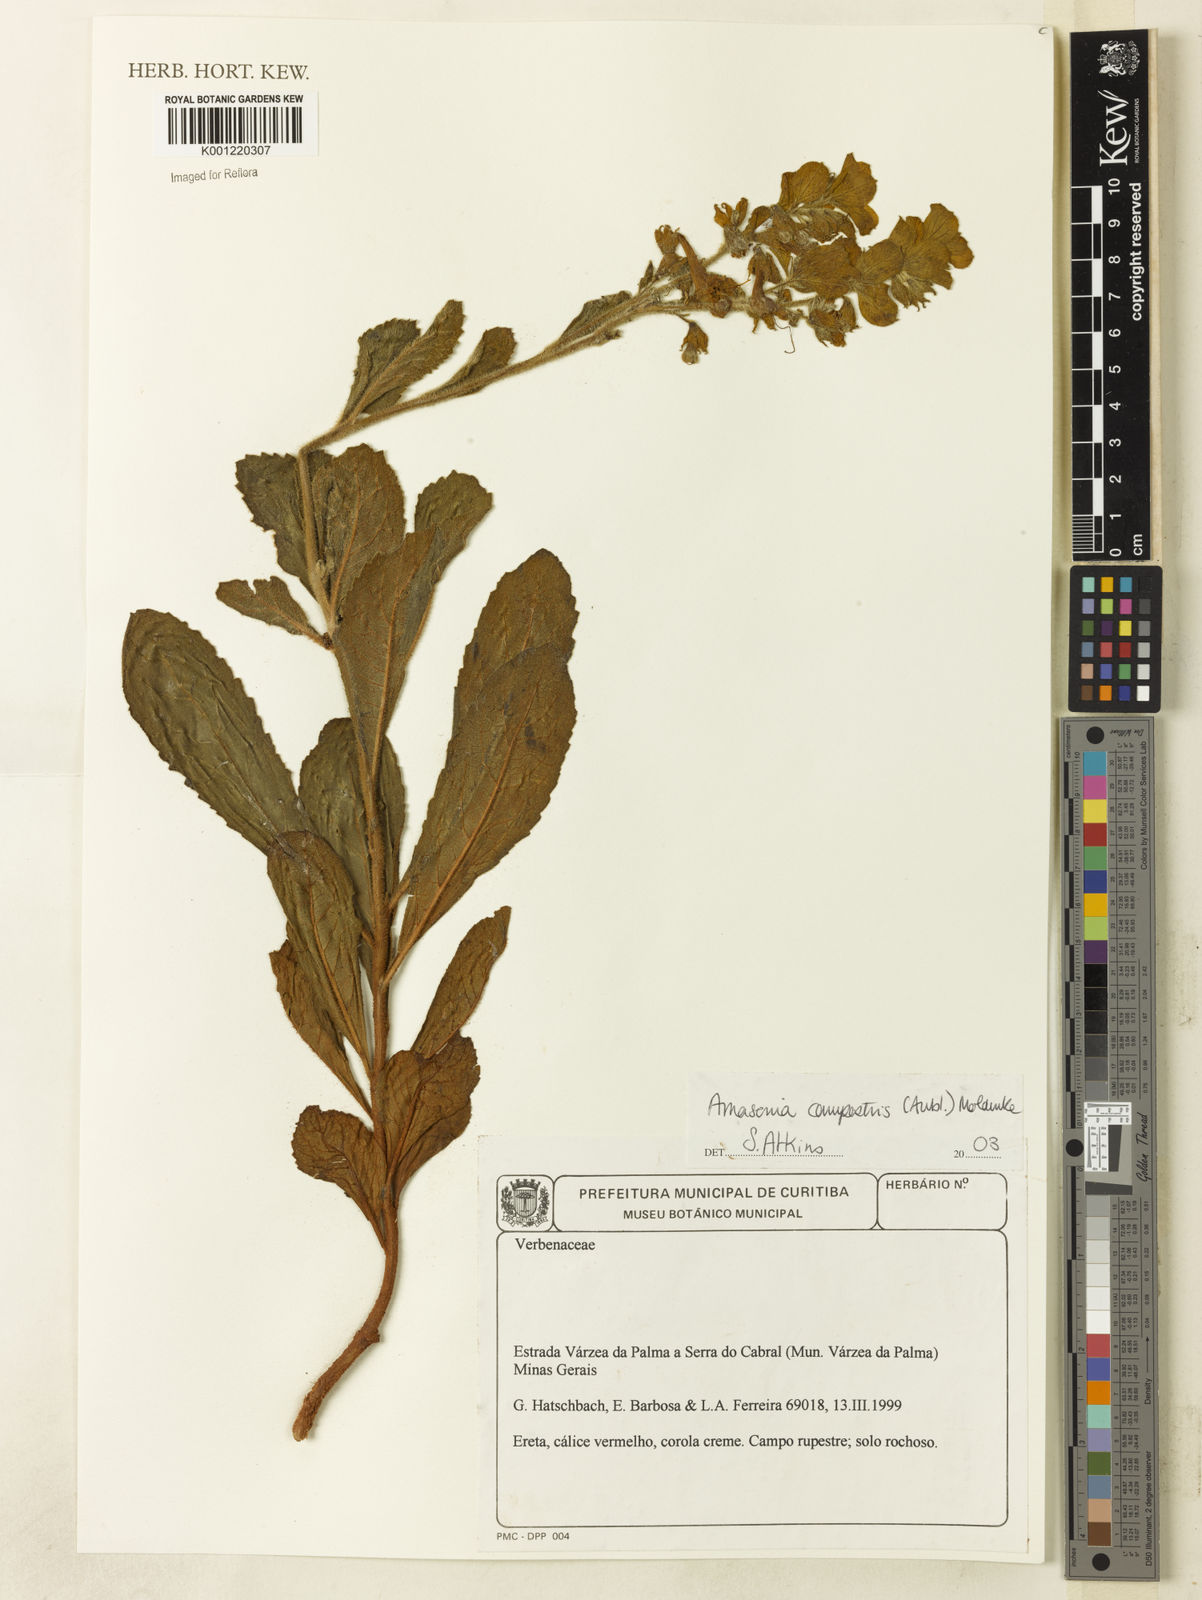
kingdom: Plantae
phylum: Tracheophyta
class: Magnoliopsida
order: Lamiales
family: Lamiaceae
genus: Amasonia
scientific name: Amasonia campestris
